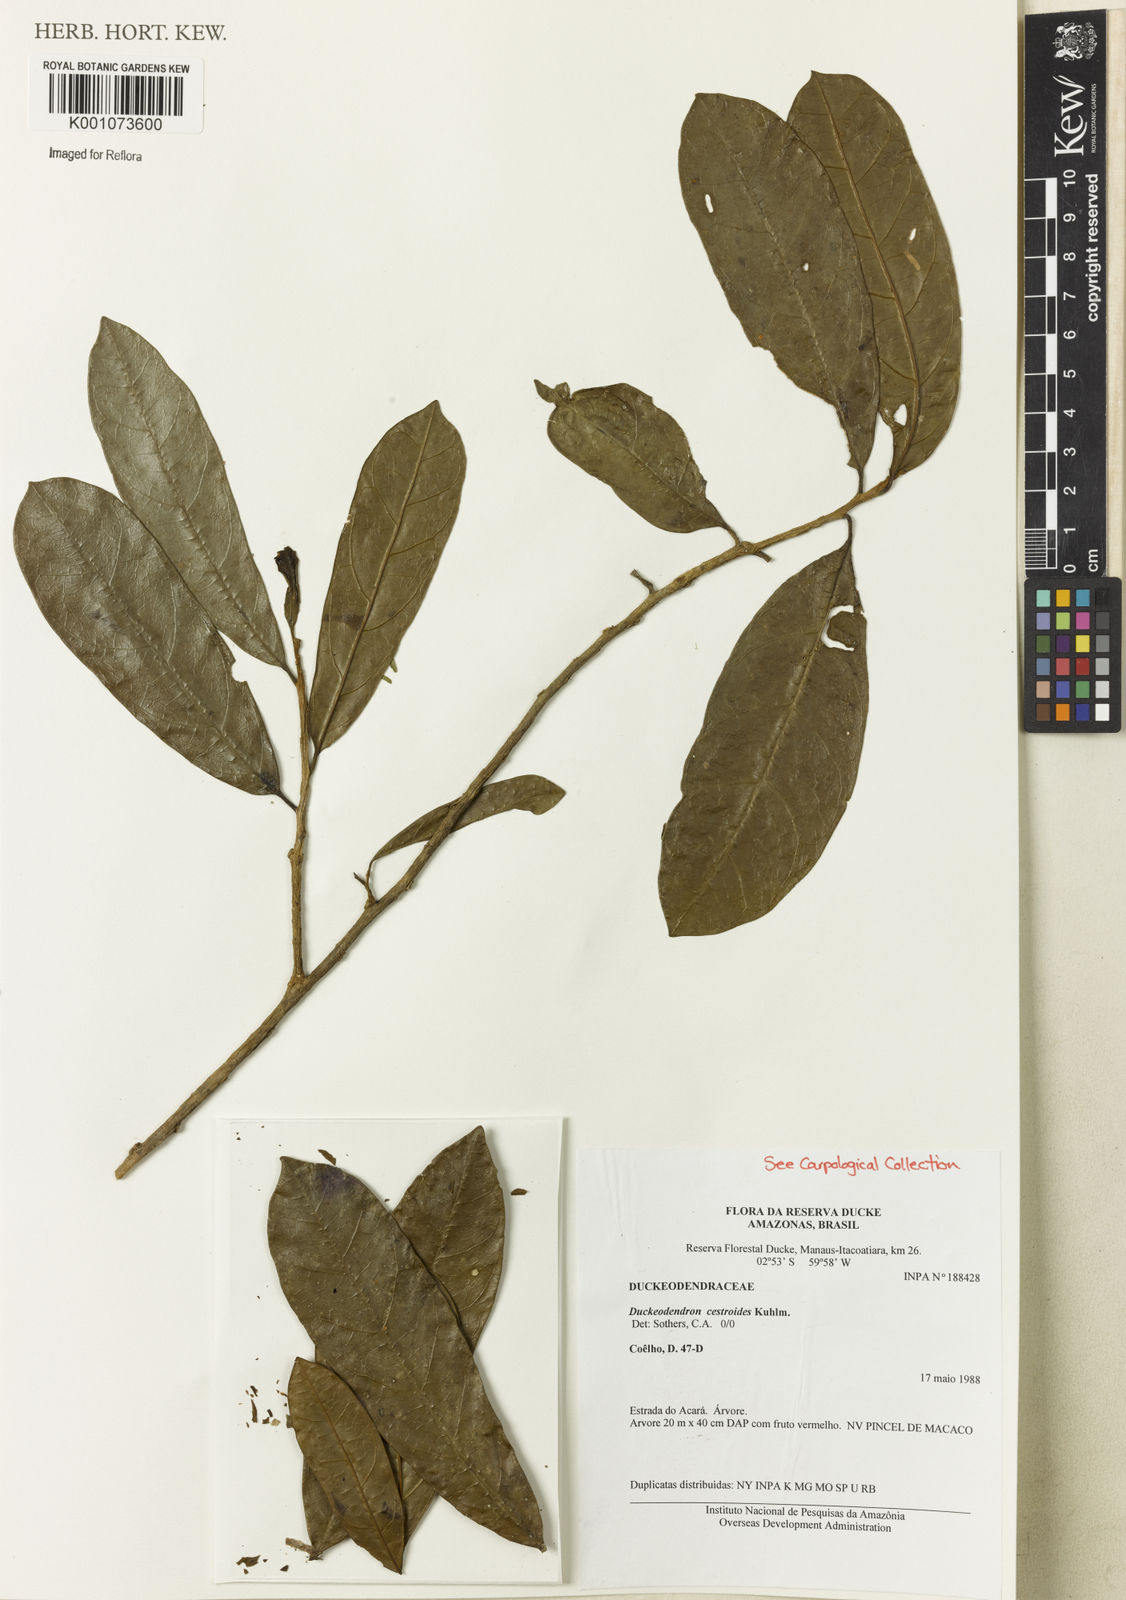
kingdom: Plantae
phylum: Tracheophyta
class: Magnoliopsida
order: Solanales
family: Solanaceae
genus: Duckeodendron
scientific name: Duckeodendron cestroides
